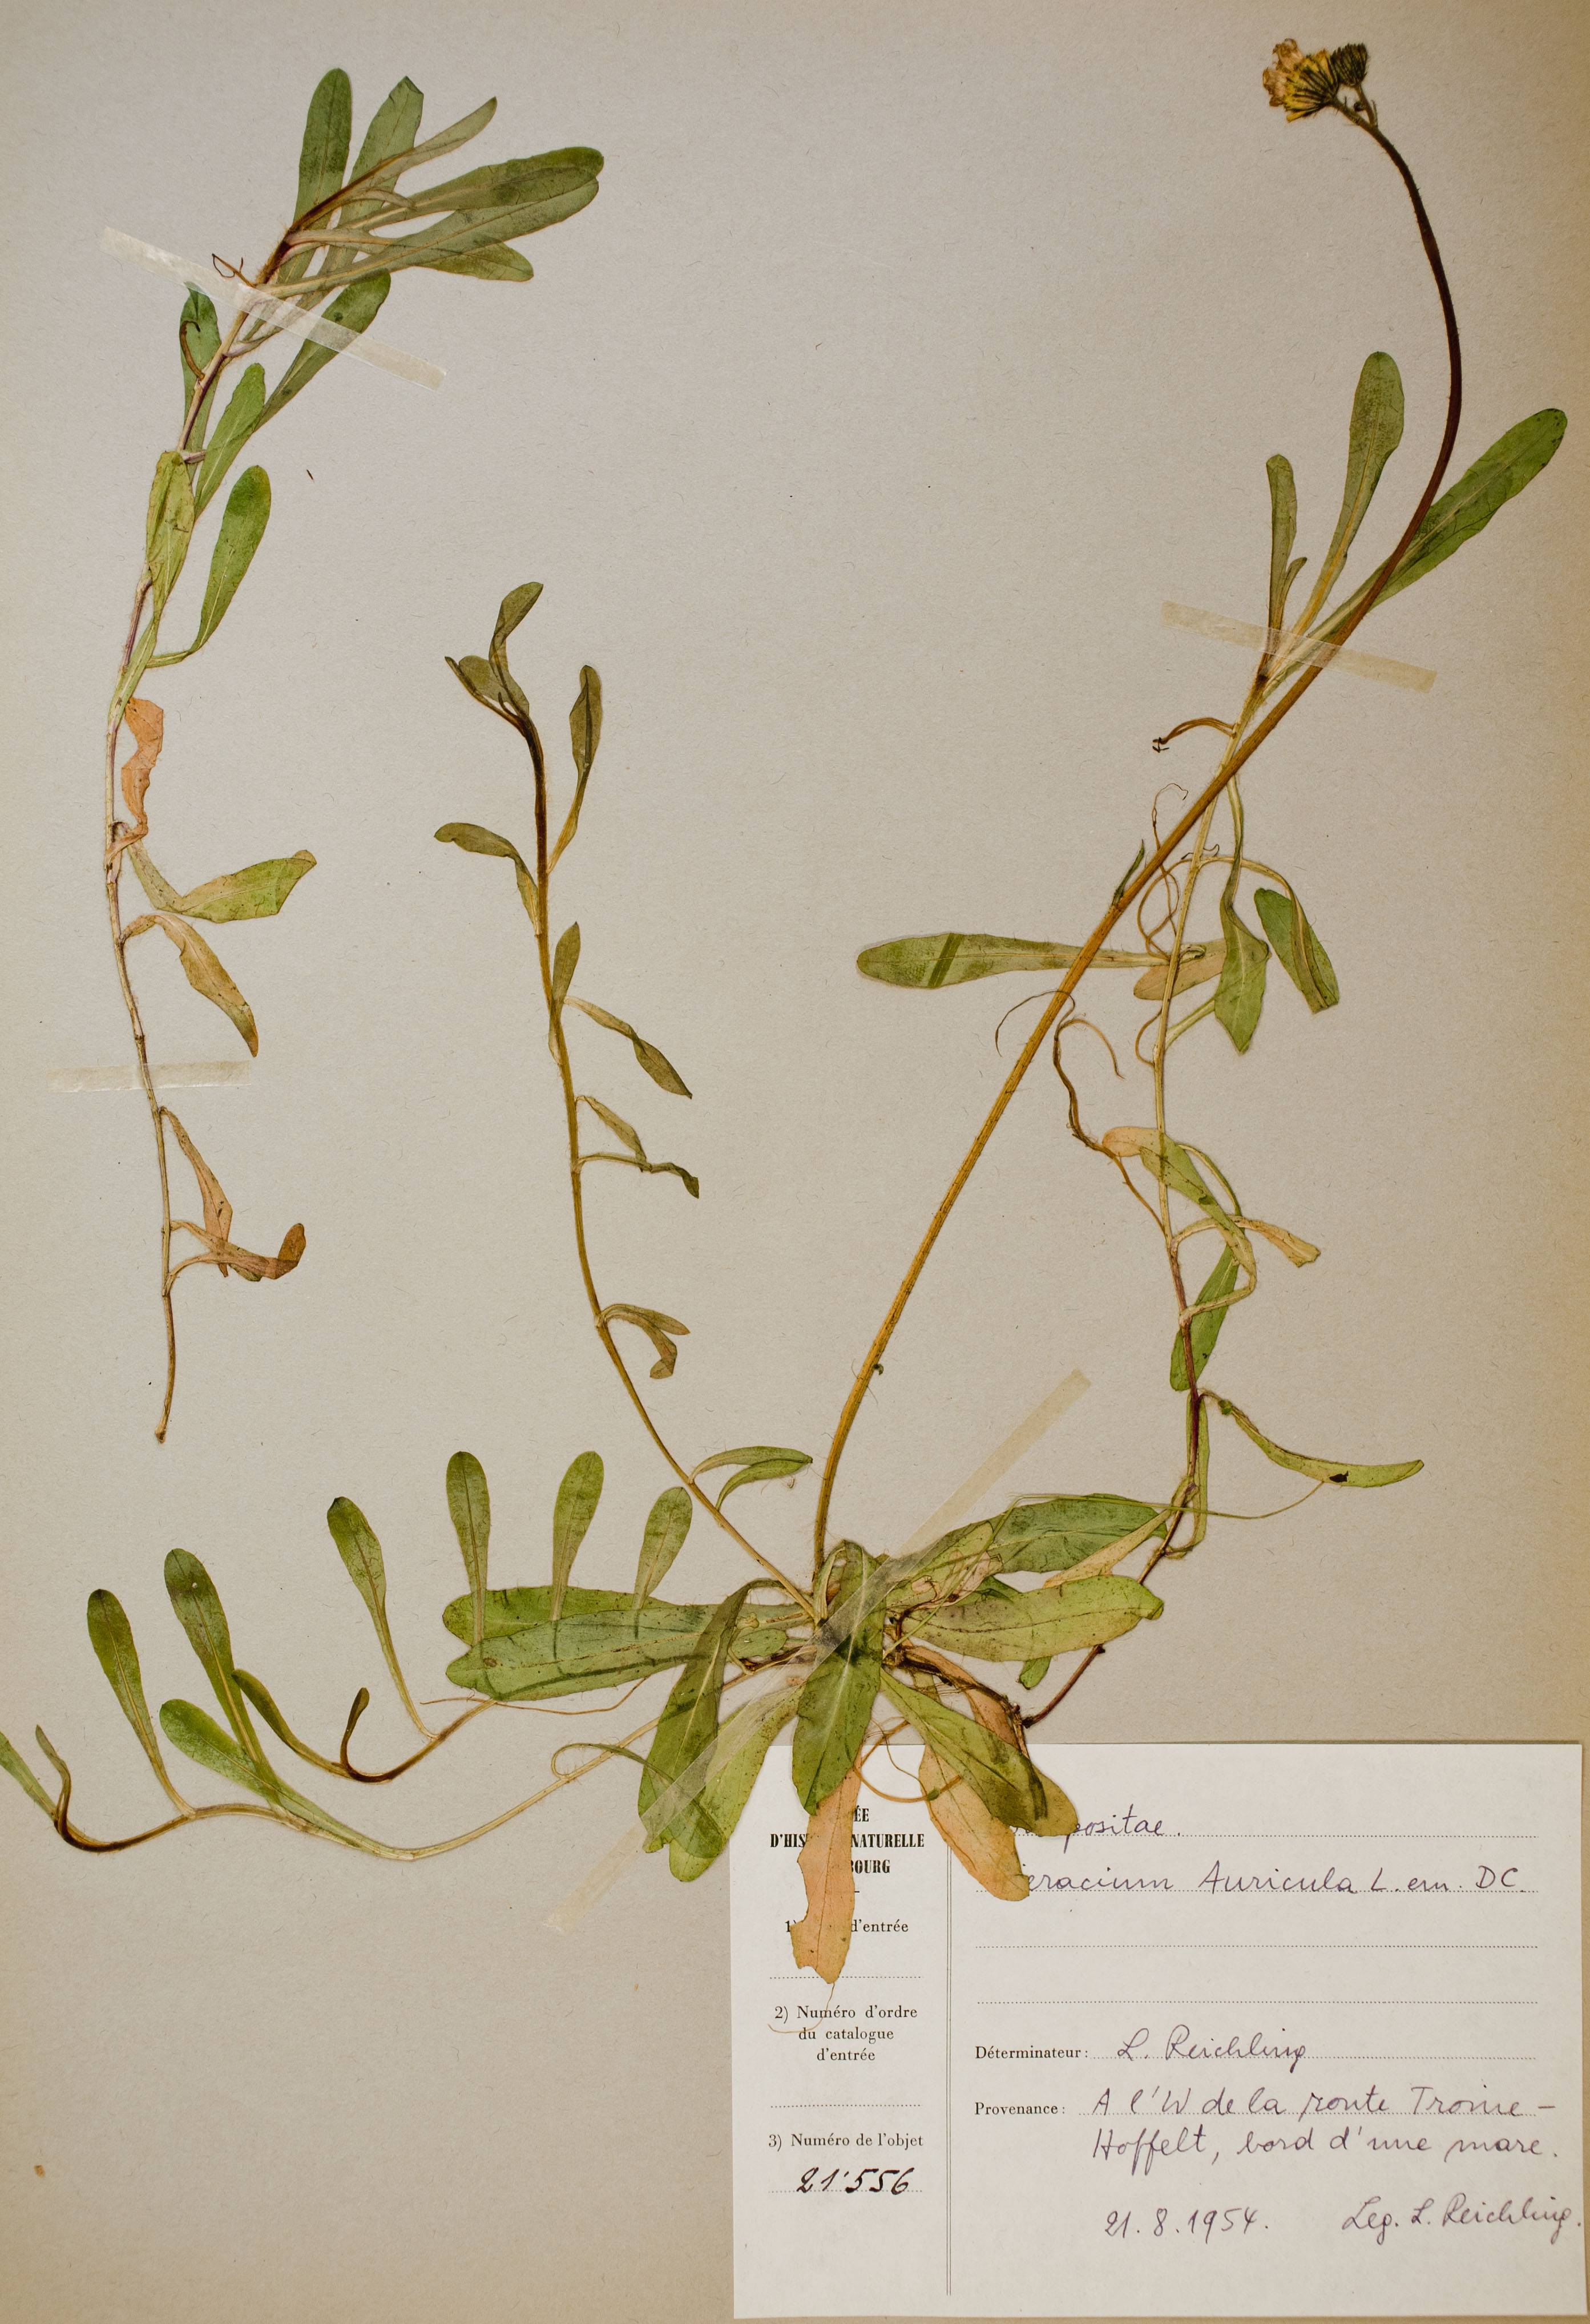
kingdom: Plantae
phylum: Tracheophyta
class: Magnoliopsida
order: Asterales
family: Asteraceae
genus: Pilosella
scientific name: Pilosella lactucella
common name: Glaucous fox-and-cubs
